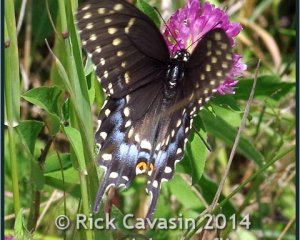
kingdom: Animalia
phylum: Arthropoda
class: Insecta
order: Lepidoptera
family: Papilionidae
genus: Papilio
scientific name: Papilio polyxenes
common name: Black Swallowtail
